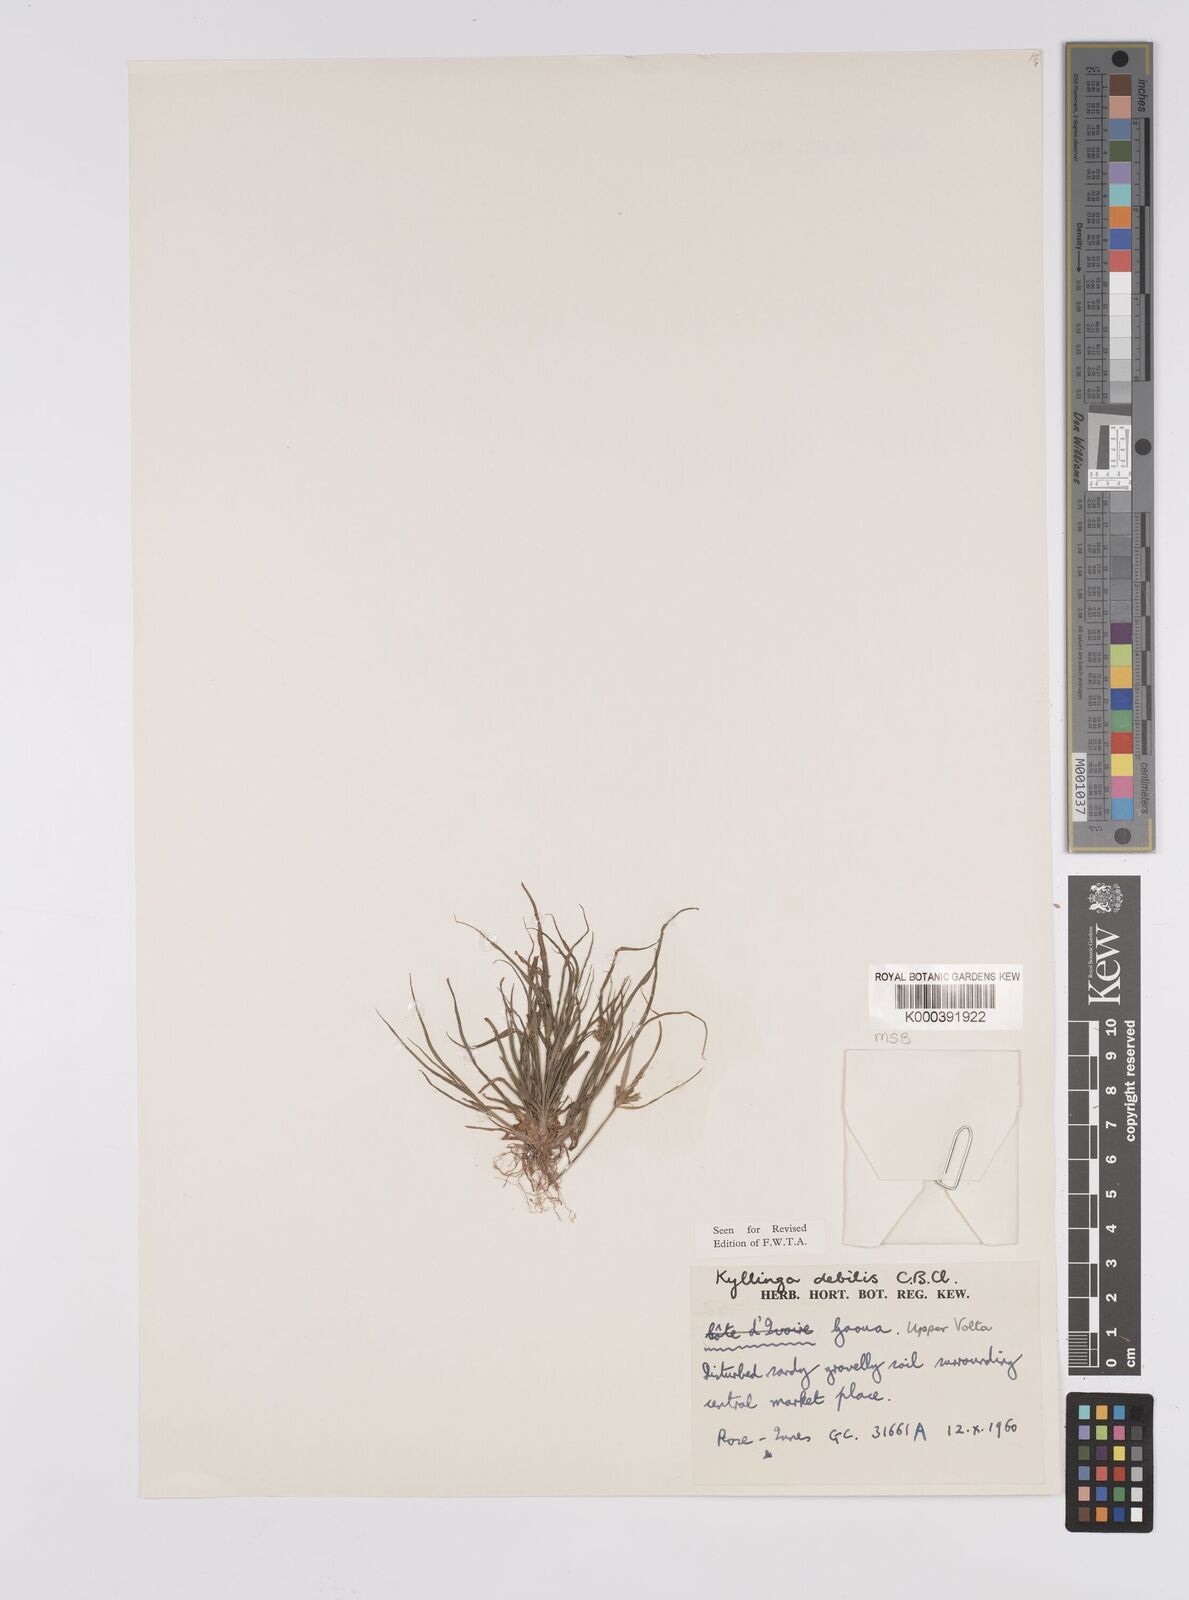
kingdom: Plantae
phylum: Tracheophyta
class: Liliopsida
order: Poales
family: Cyperaceae
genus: Cyperus
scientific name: Cyperus leptorhachis
